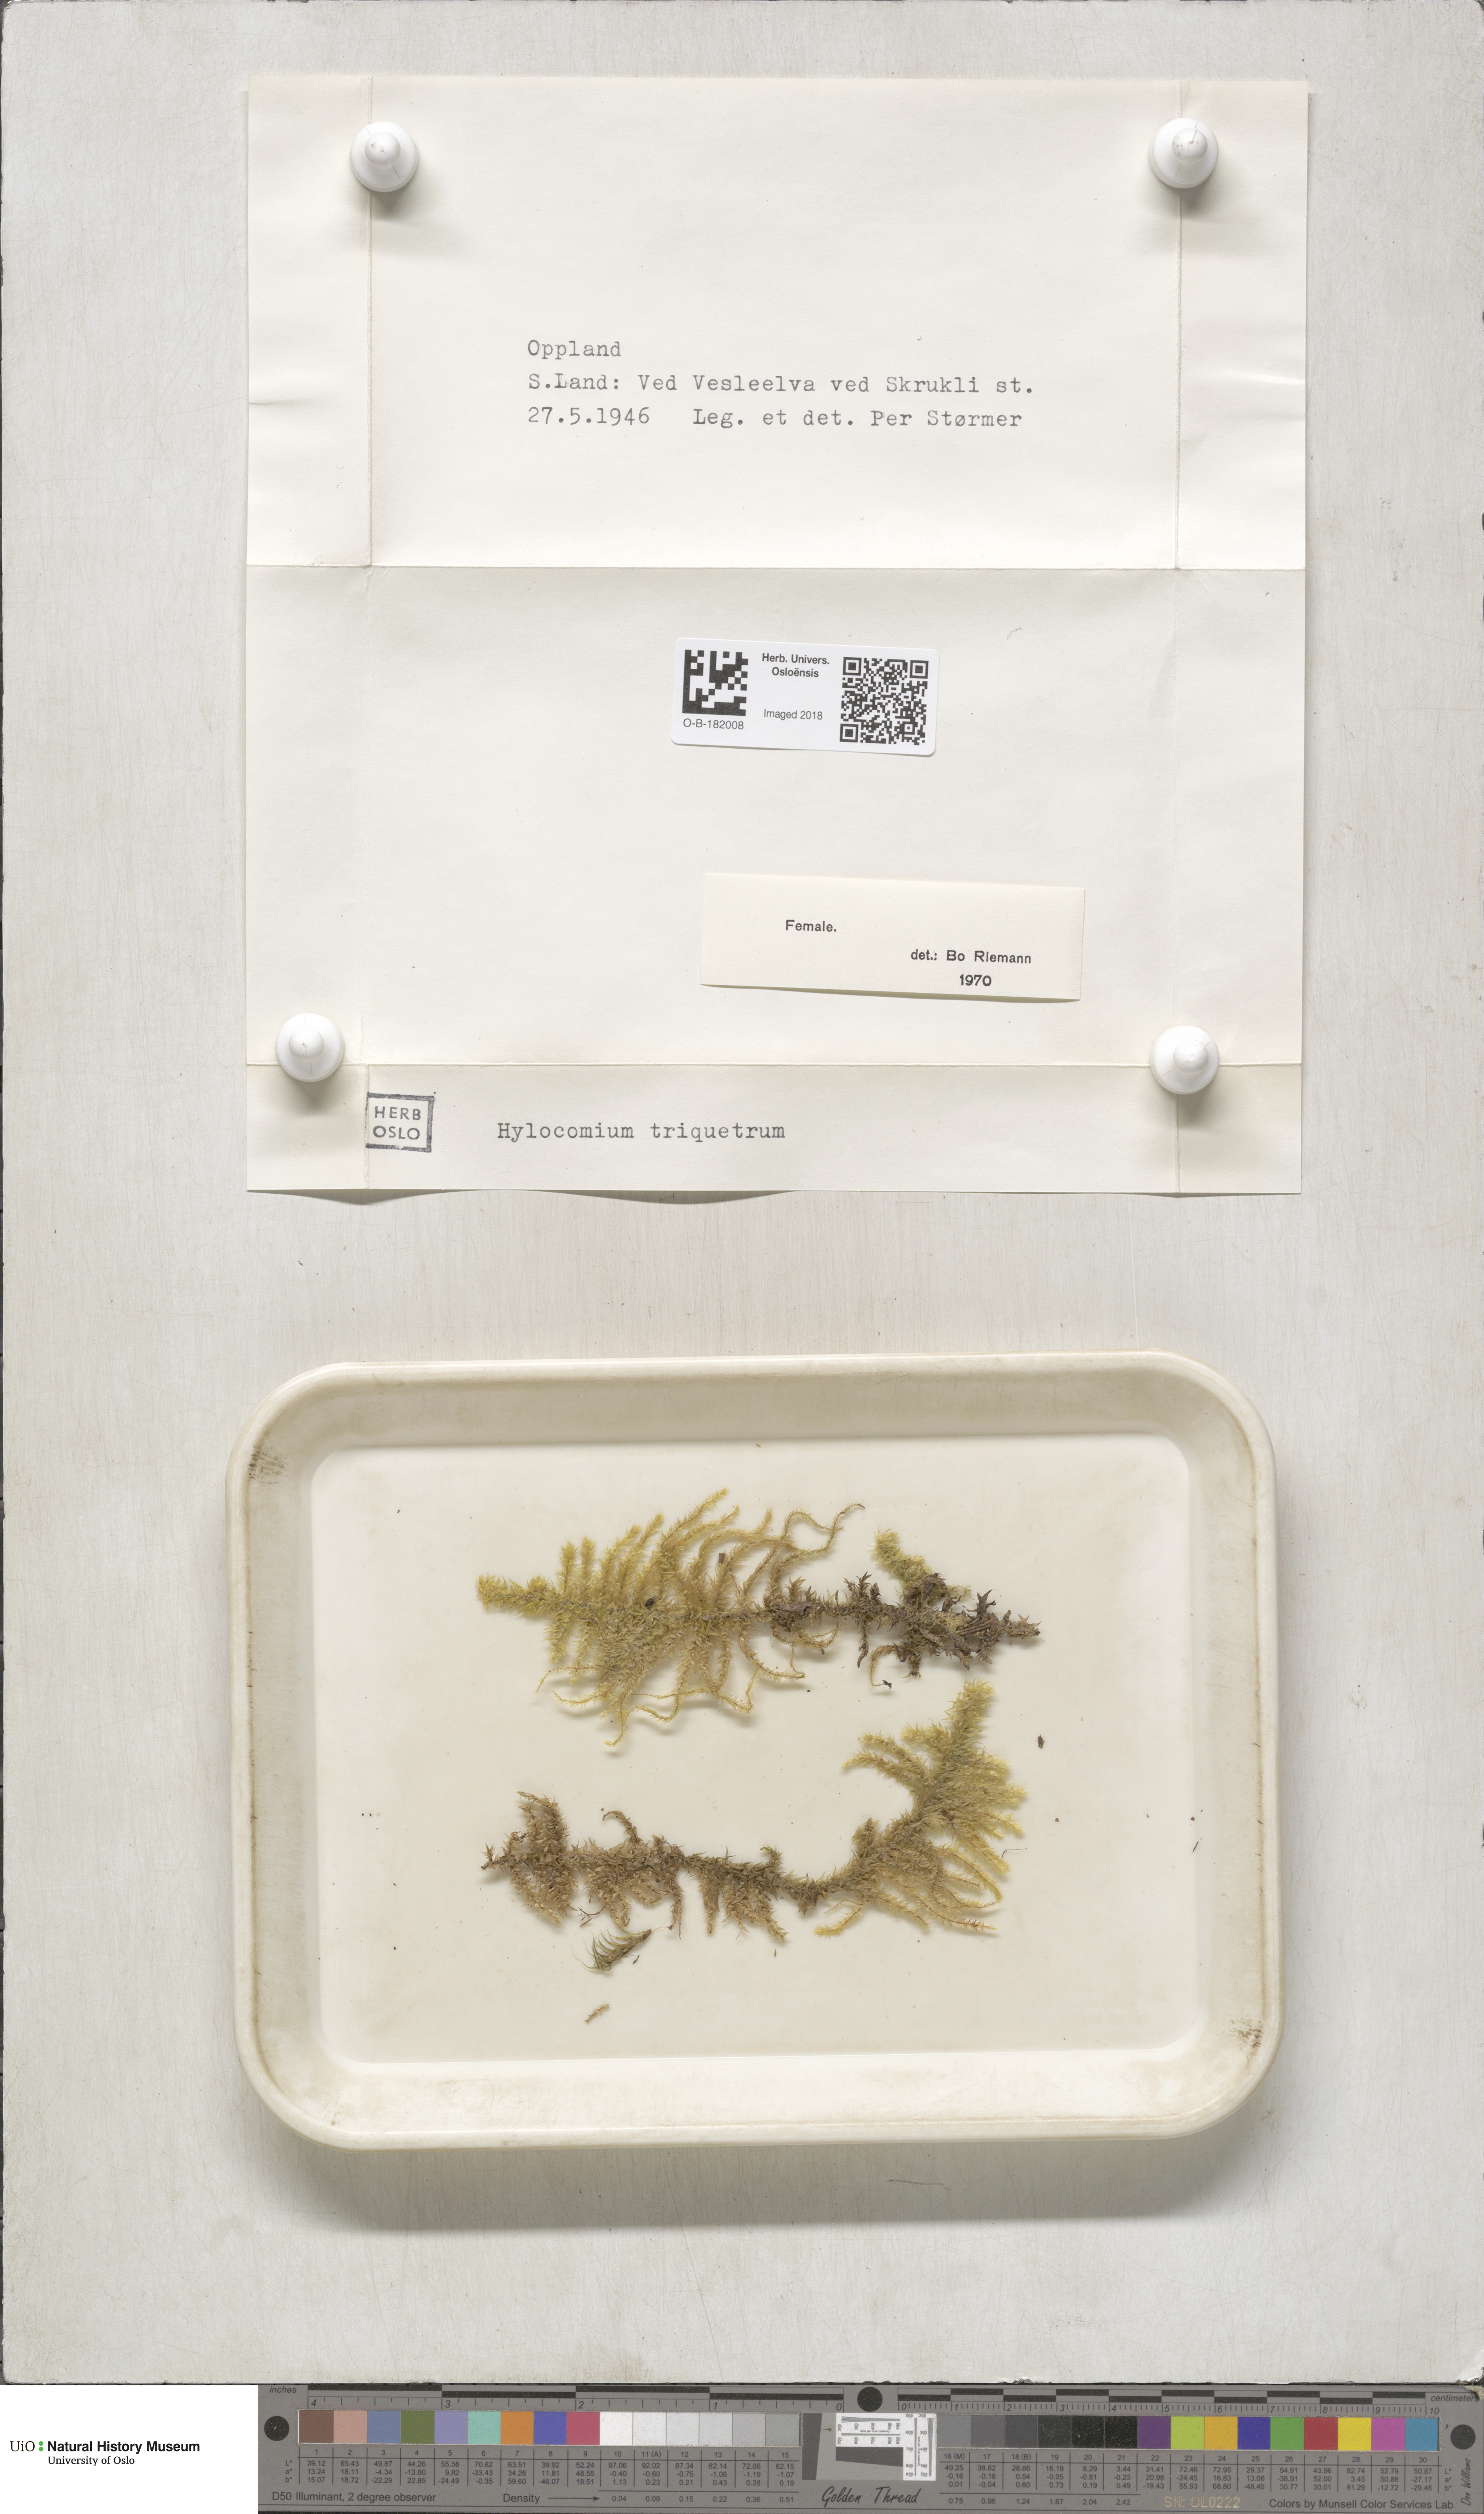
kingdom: Plantae
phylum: Bryophyta
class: Bryopsida
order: Hypnales
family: Hylocomiaceae
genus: Hylocomiadelphus
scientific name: Hylocomiadelphus triquetrus
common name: Rough goose neck moss
